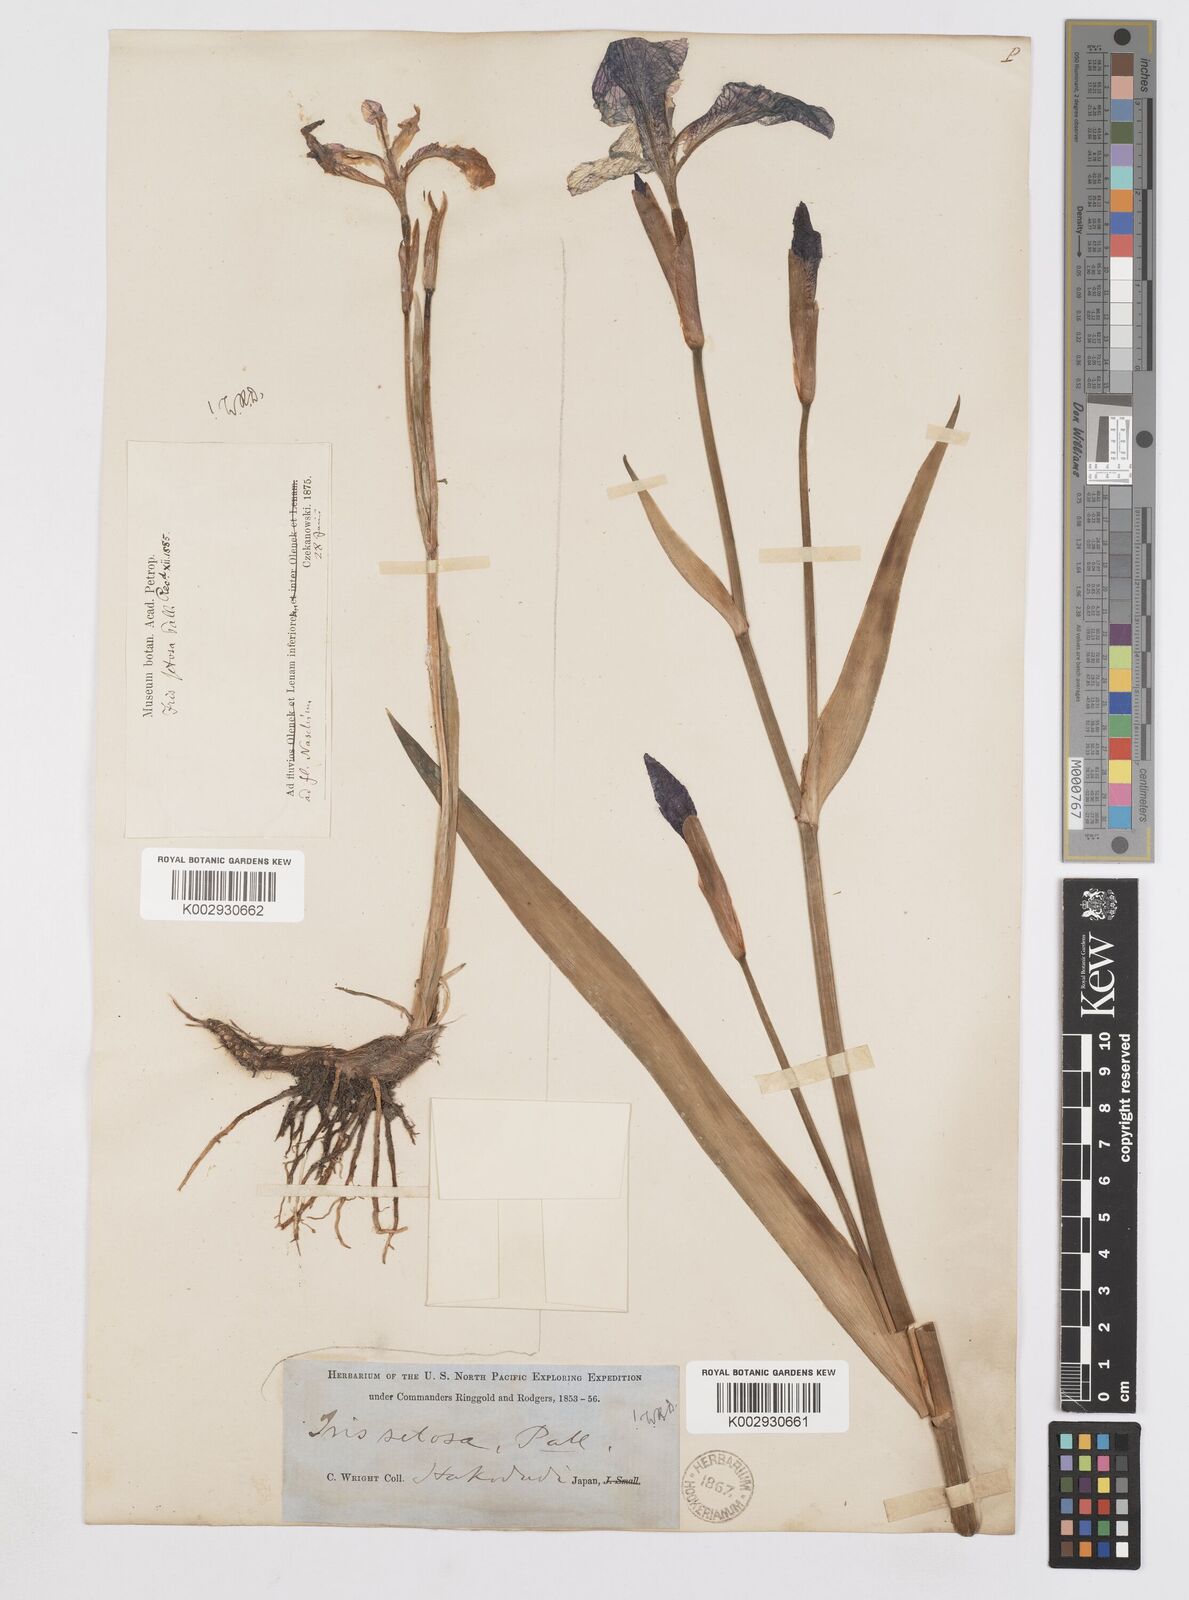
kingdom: Plantae
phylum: Tracheophyta
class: Liliopsida
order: Asparagales
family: Iridaceae
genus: Iris
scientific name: Iris setosa
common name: Arctic blue flag
